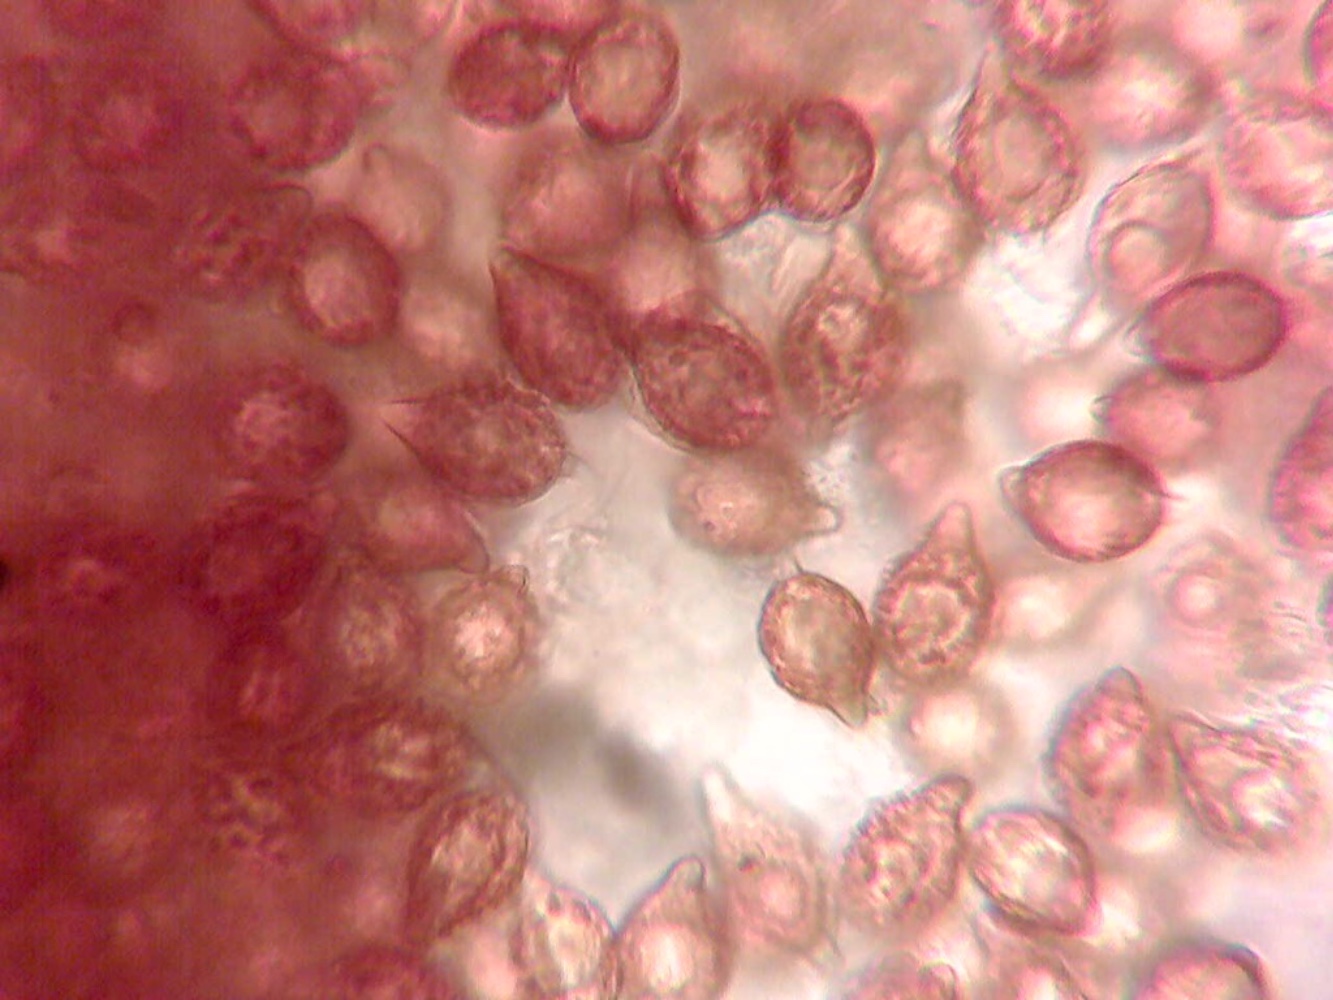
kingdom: Fungi
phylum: Basidiomycota
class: Agaricomycetes
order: Agaricales
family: Cortinariaceae
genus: Protoglossum
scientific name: Protoglossum niveum
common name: hvid knoldtrøffel
